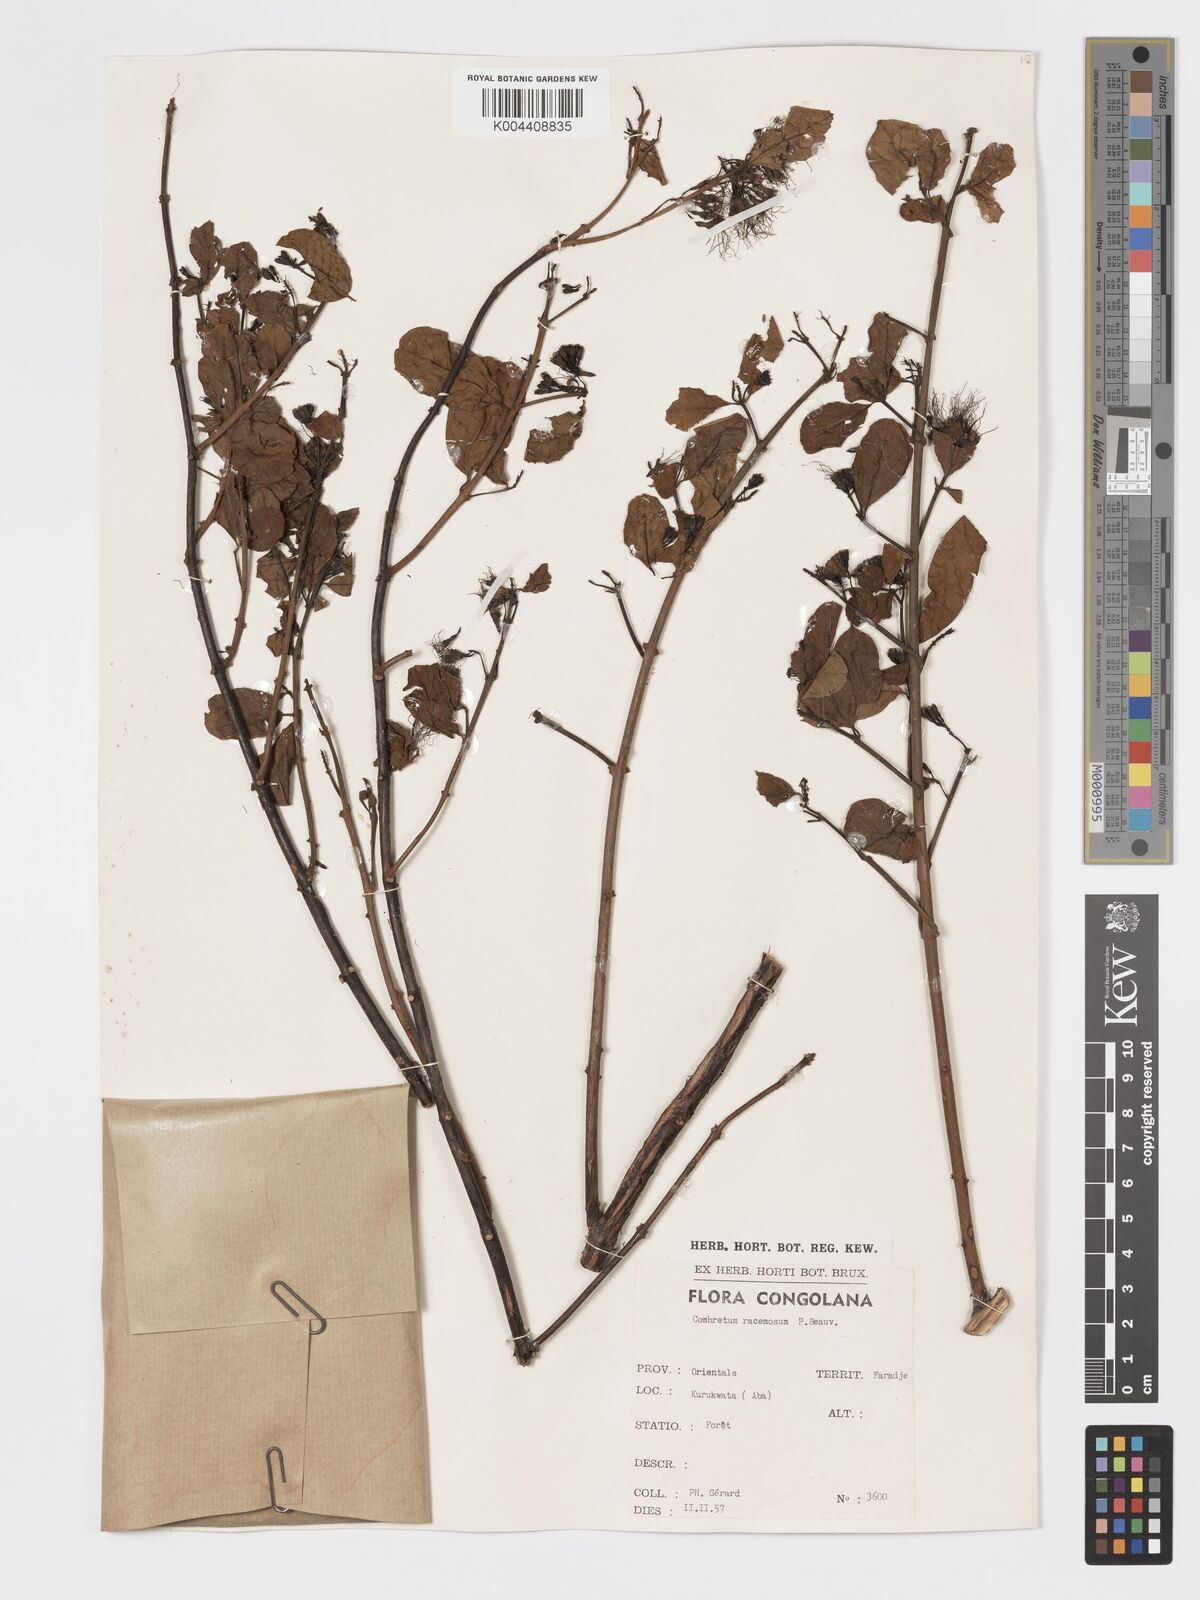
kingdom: Plantae
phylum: Tracheophyta
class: Magnoliopsida
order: Myrtales
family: Combretaceae
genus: Combretum
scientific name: Combretum racemosum
